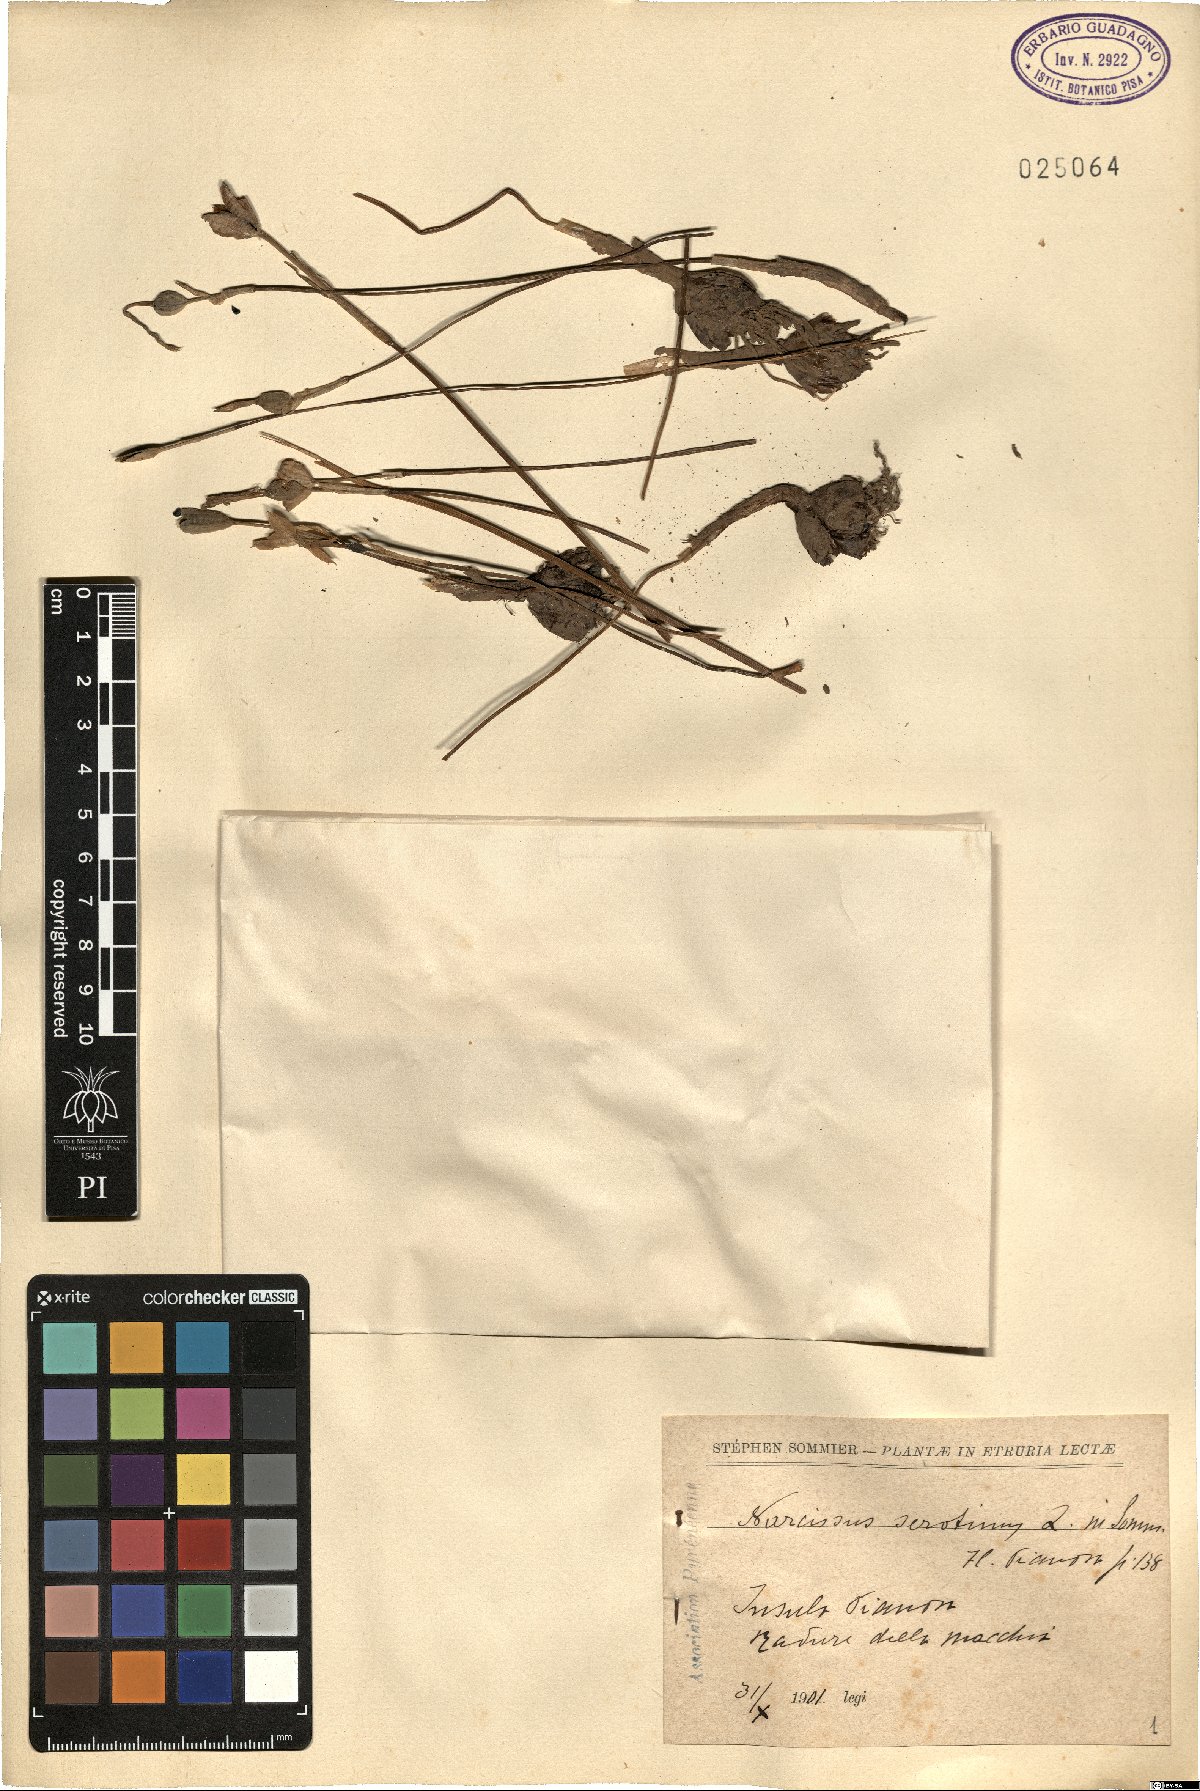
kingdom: Plantae
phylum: Tracheophyta
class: Liliopsida
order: Asparagales
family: Amaryllidaceae
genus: Narcissus
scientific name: Narcissus serotinus
